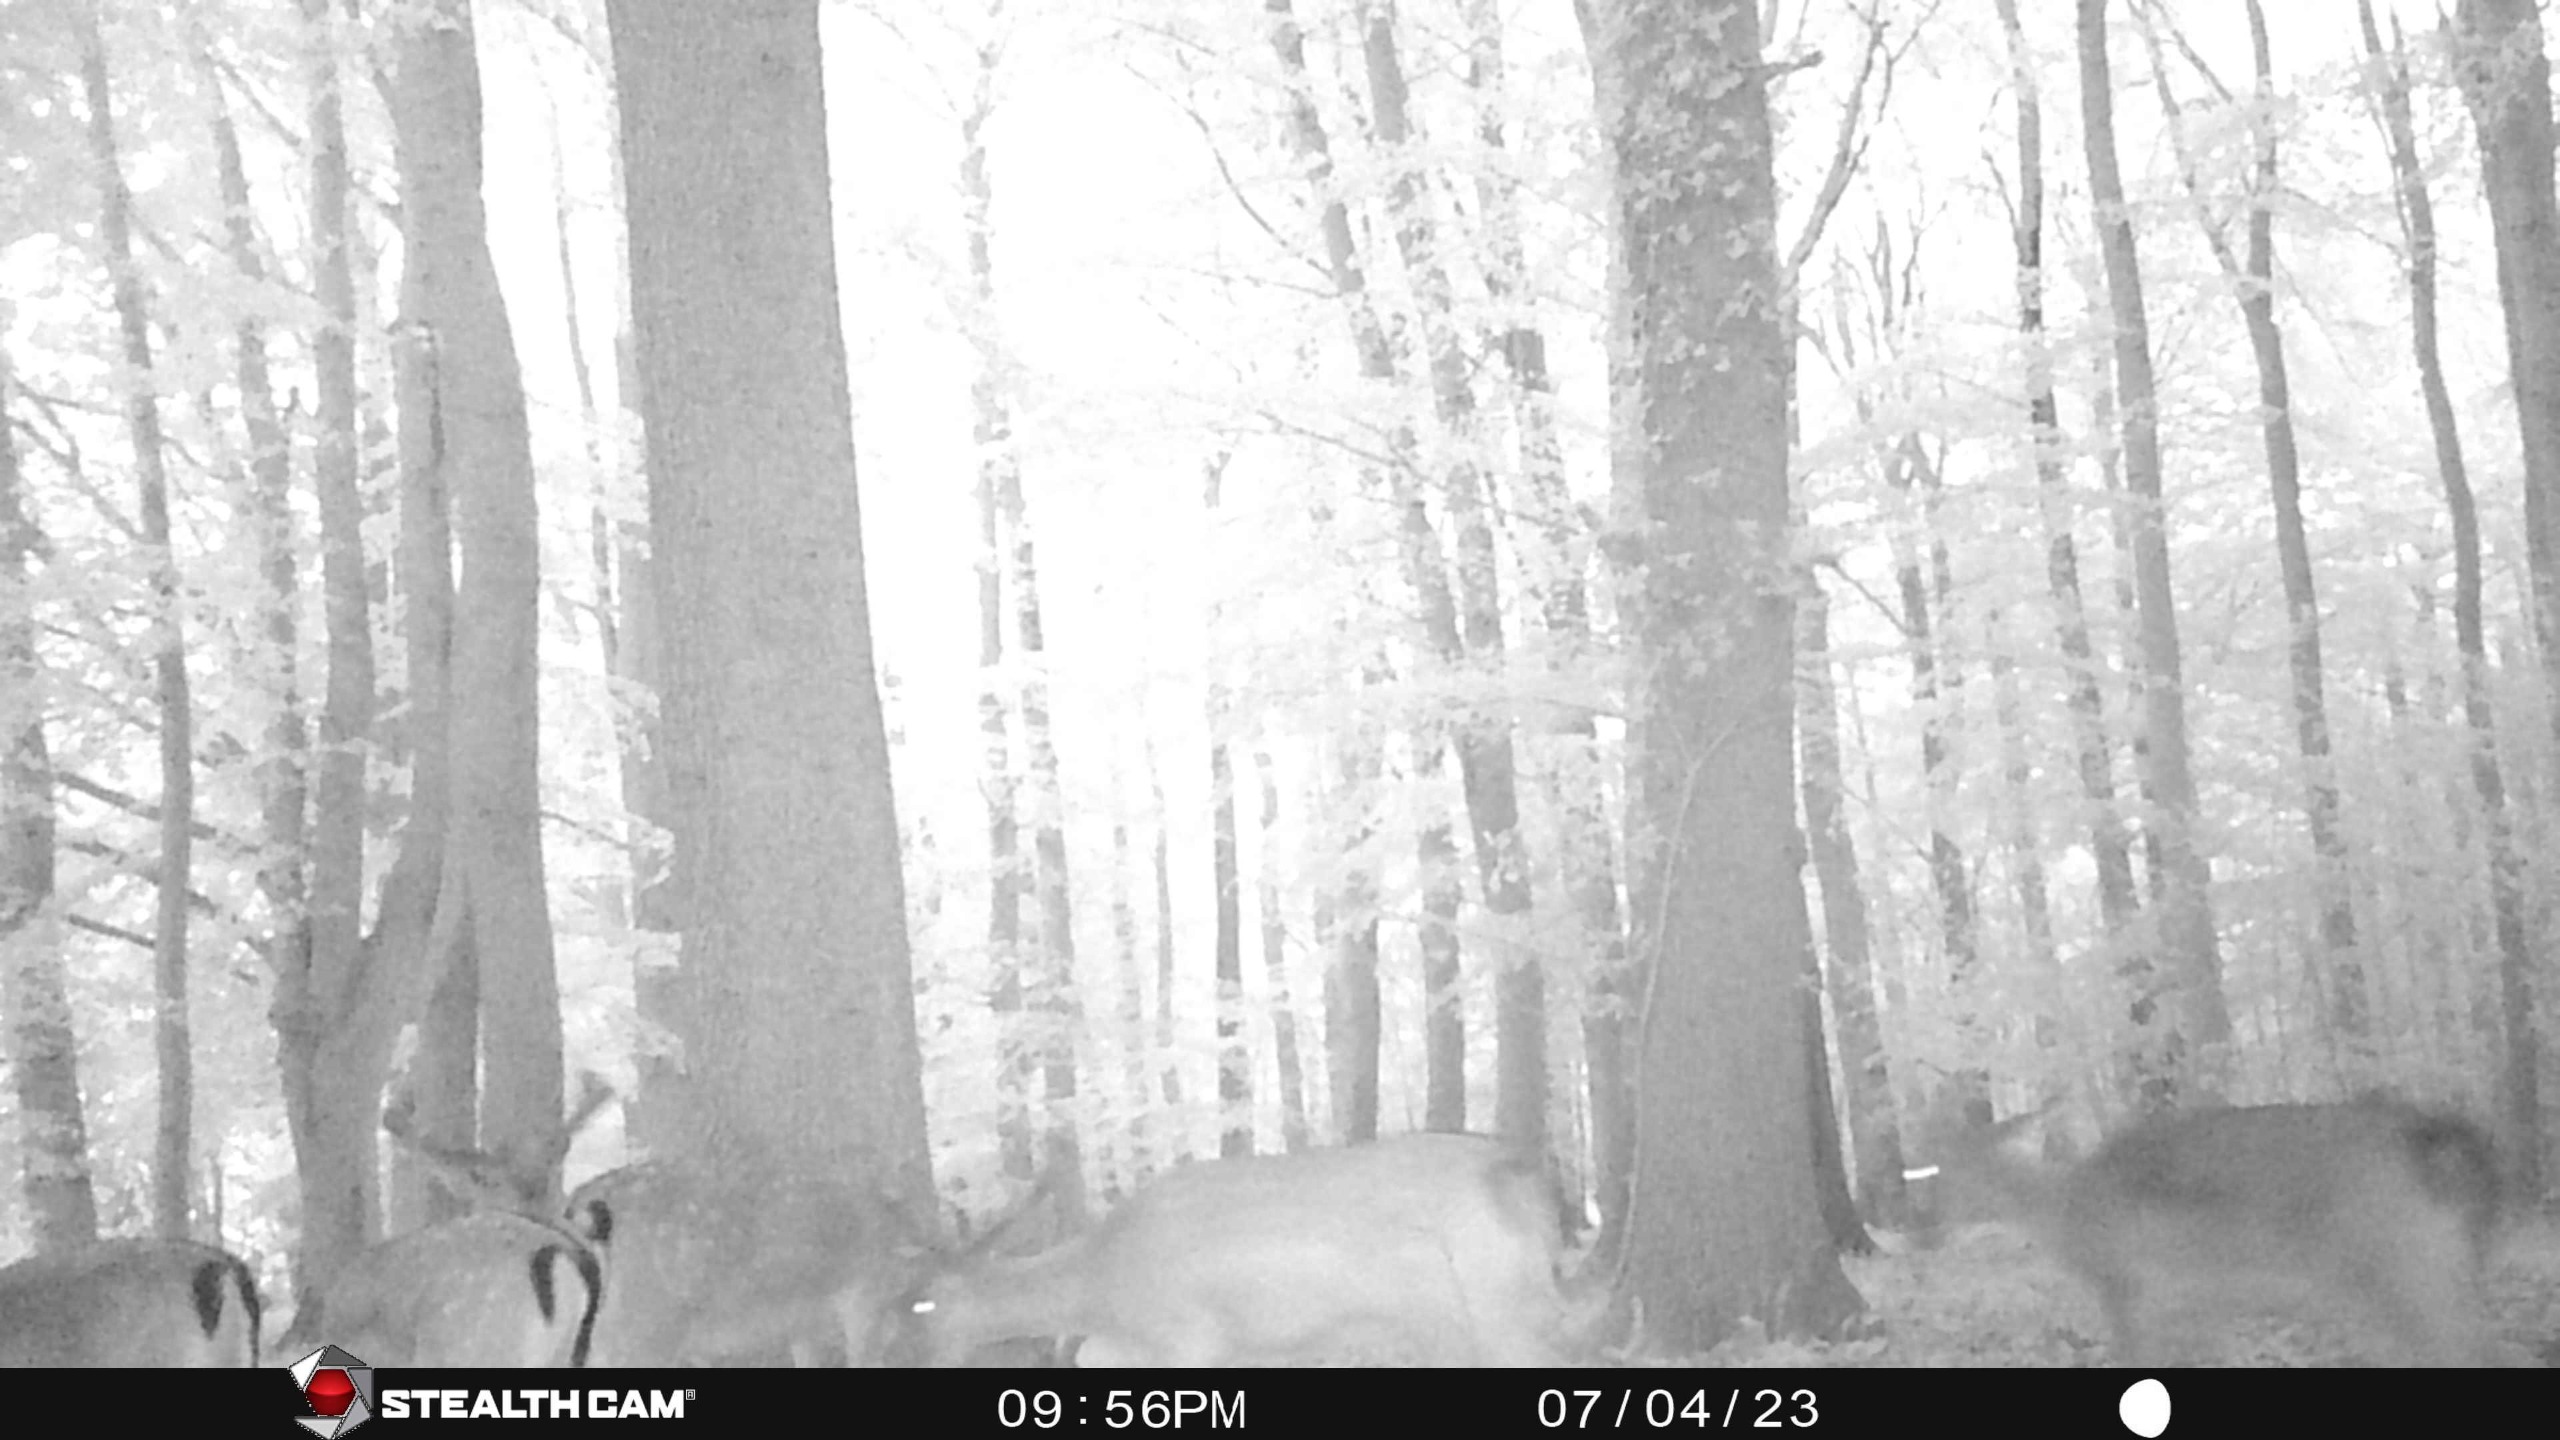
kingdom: Animalia
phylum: Chordata
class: Mammalia
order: Artiodactyla
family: Cervidae
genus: Dama
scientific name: Dama dama
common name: Dådyr
